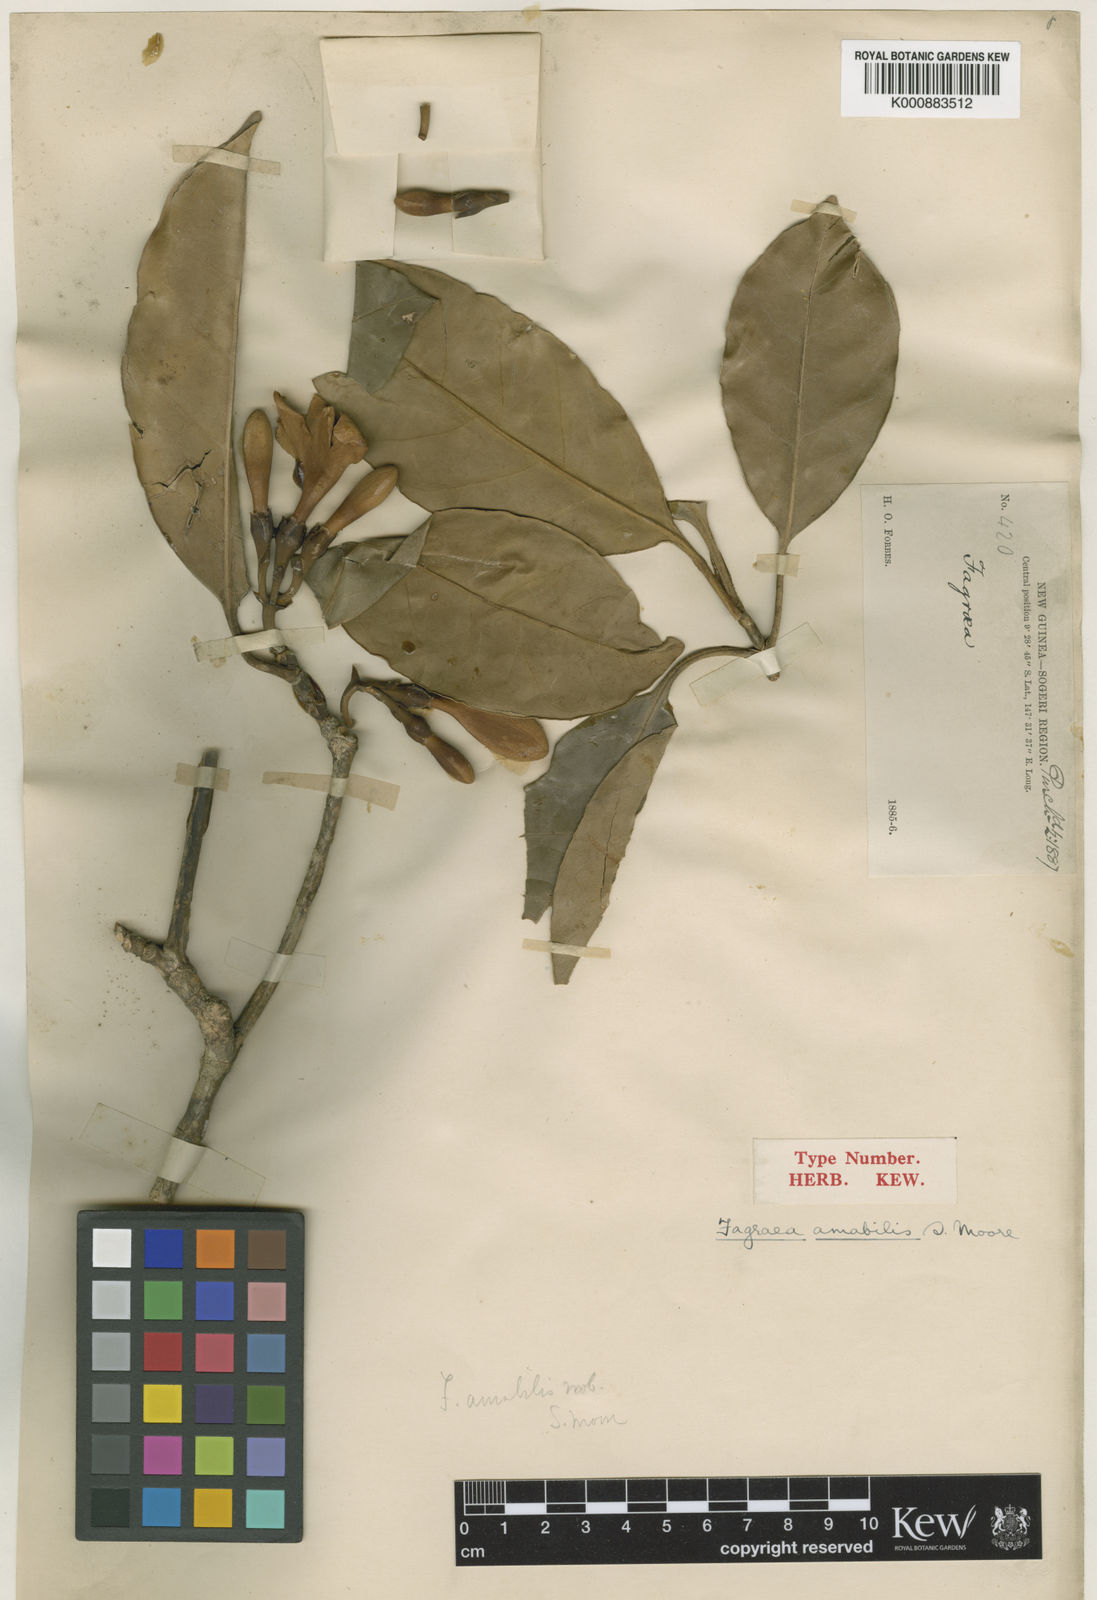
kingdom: Plantae
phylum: Tracheophyta
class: Magnoliopsida
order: Gentianales
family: Gentianaceae
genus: Fagraea
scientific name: Fagraea gracilipes
